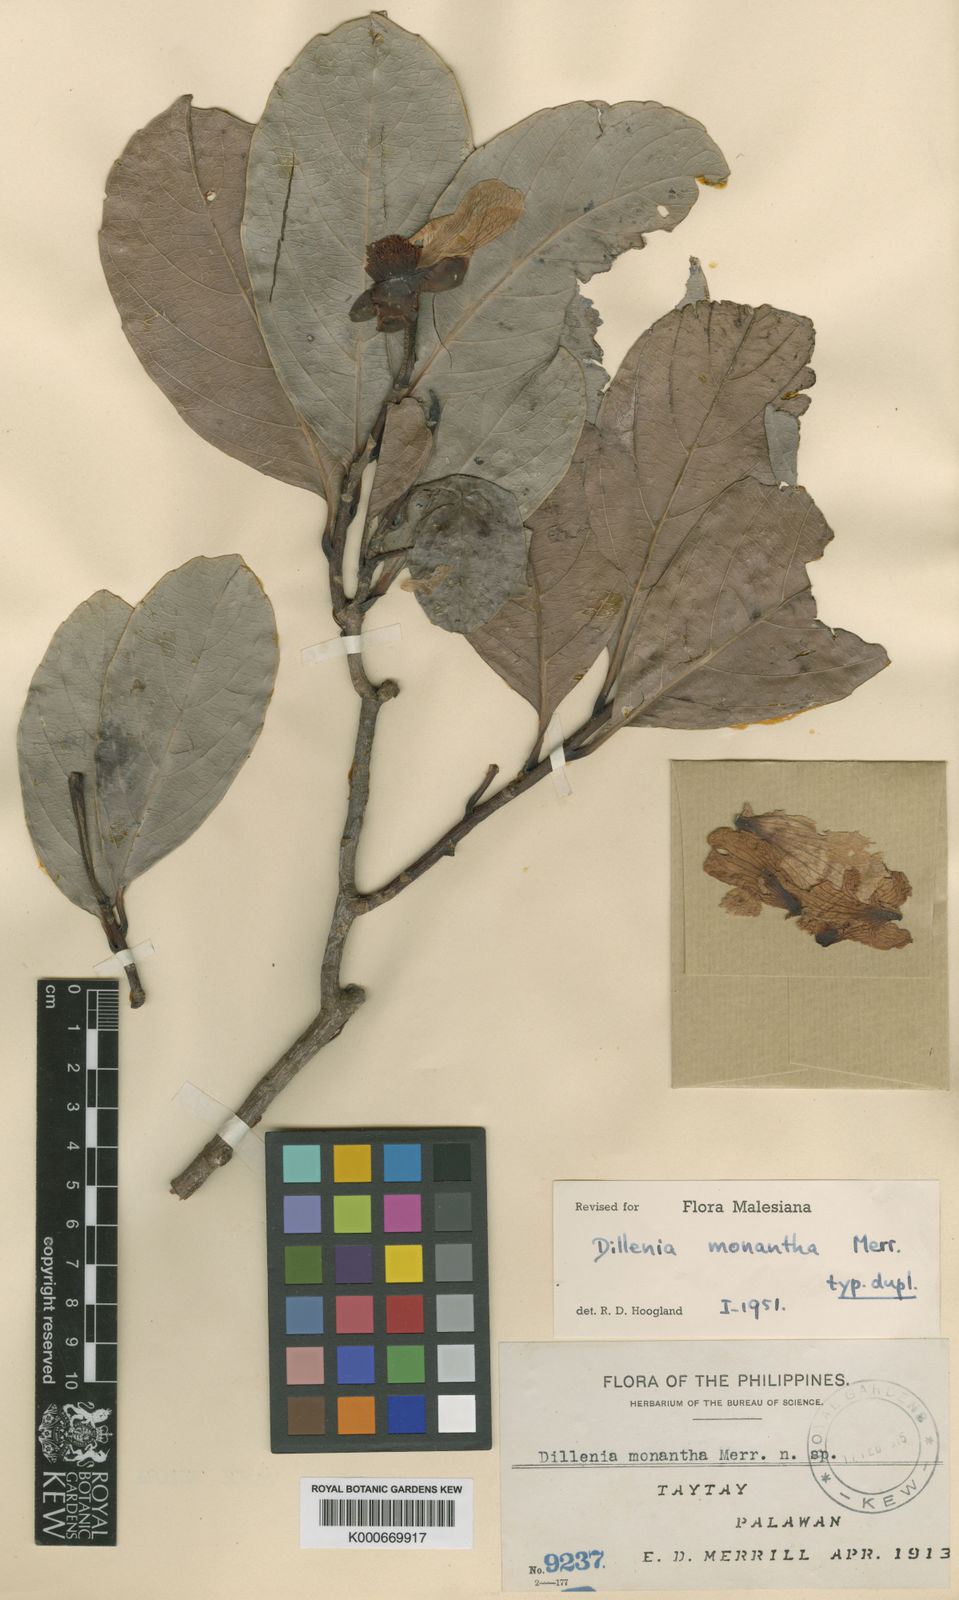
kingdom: Plantae
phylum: Tracheophyta
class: Magnoliopsida
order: Dilleniales
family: Dilleniaceae
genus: Dillenia
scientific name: Dillenia monantha
